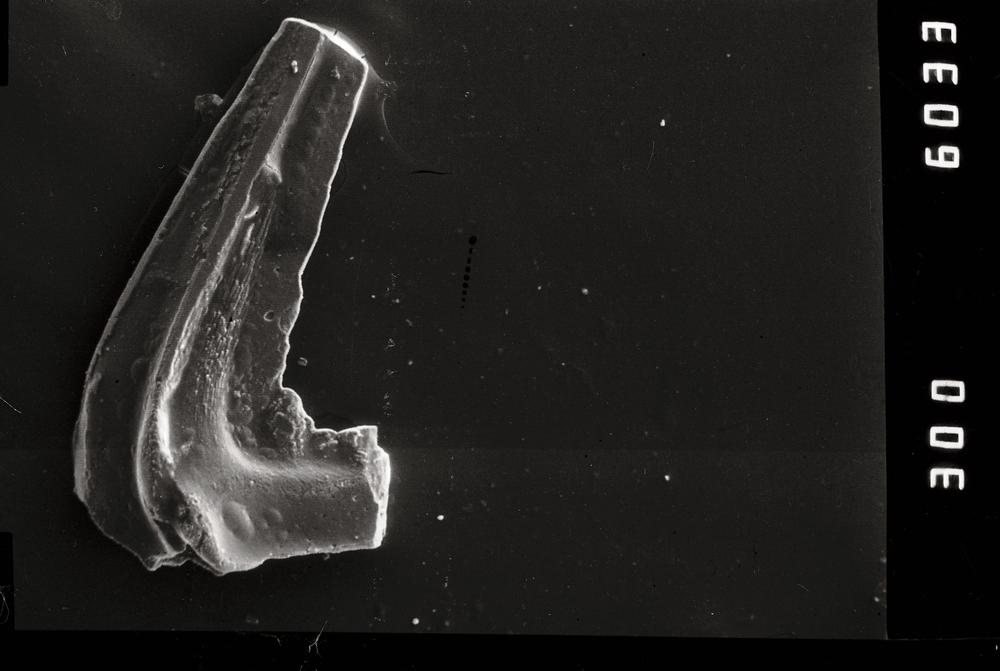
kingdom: Animalia
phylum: Chordata
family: Balognathidae
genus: Prioniodus
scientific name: Prioniodus
